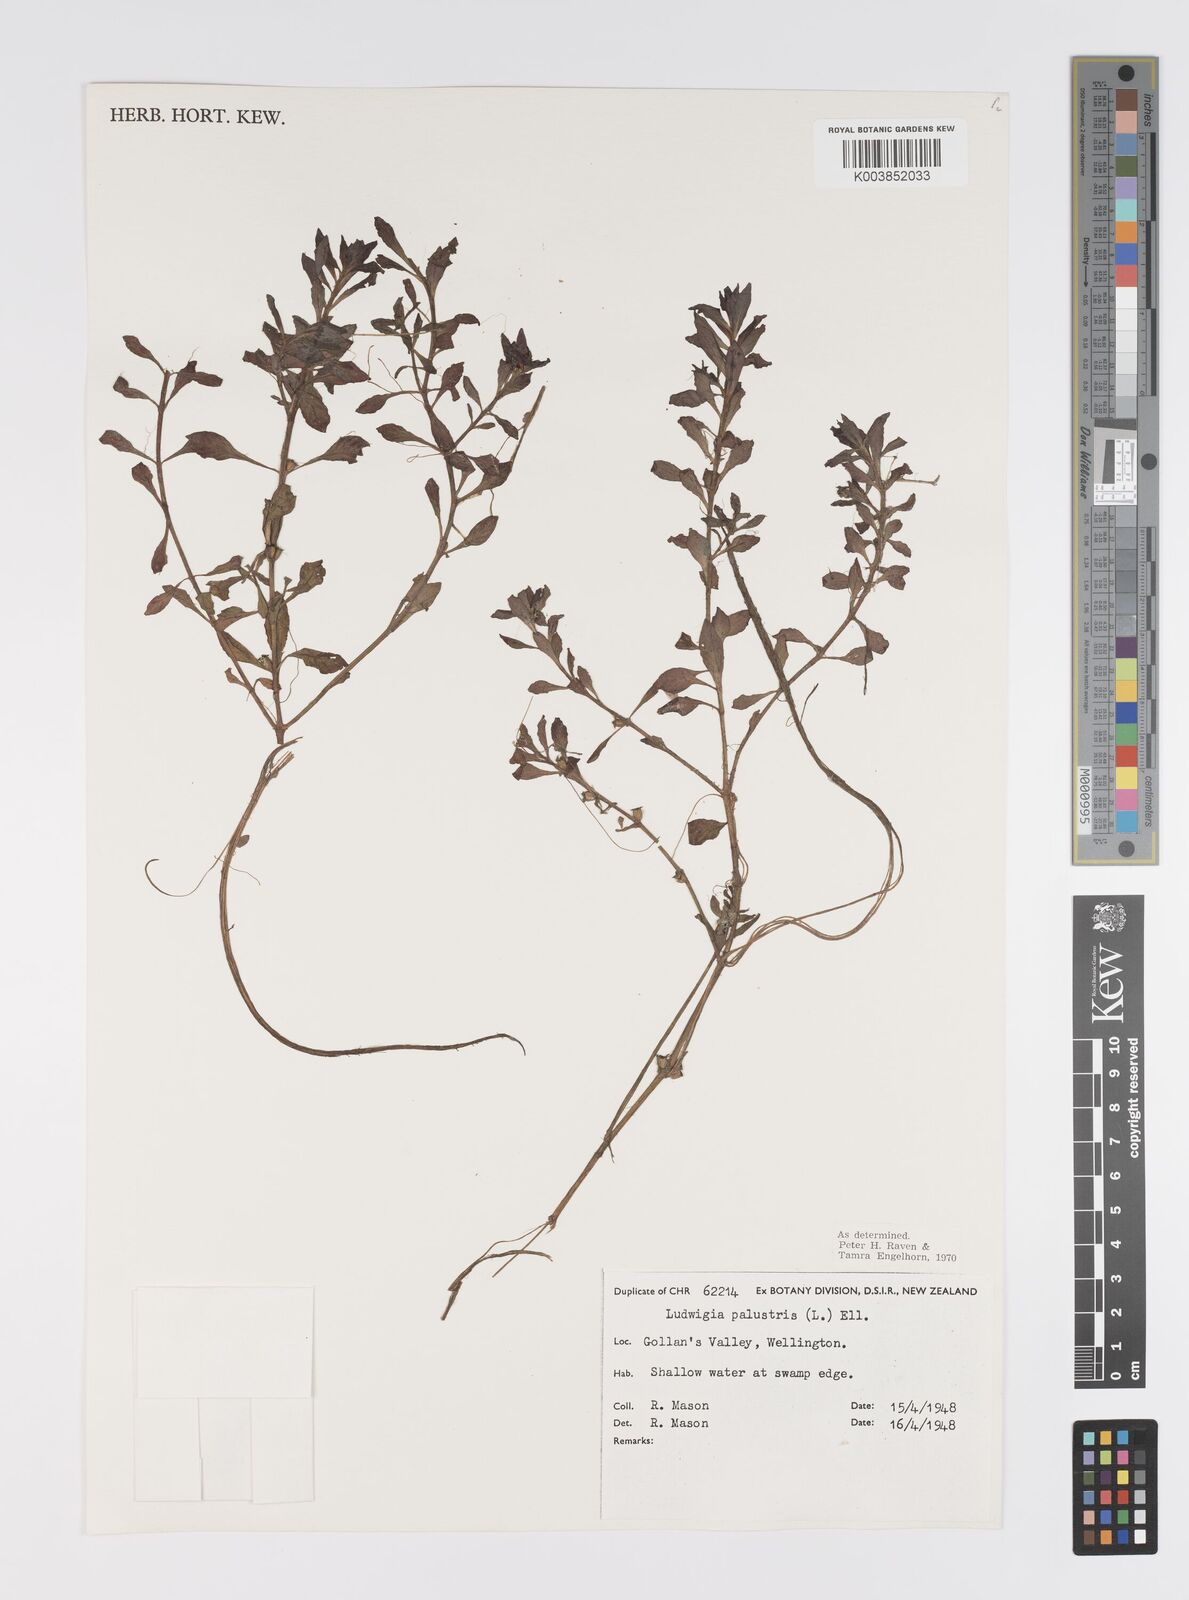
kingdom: Plantae
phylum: Tracheophyta
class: Magnoliopsida
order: Myrtales
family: Onagraceae
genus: Ludwigia
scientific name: Ludwigia palustris
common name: Hampshire-purslane
